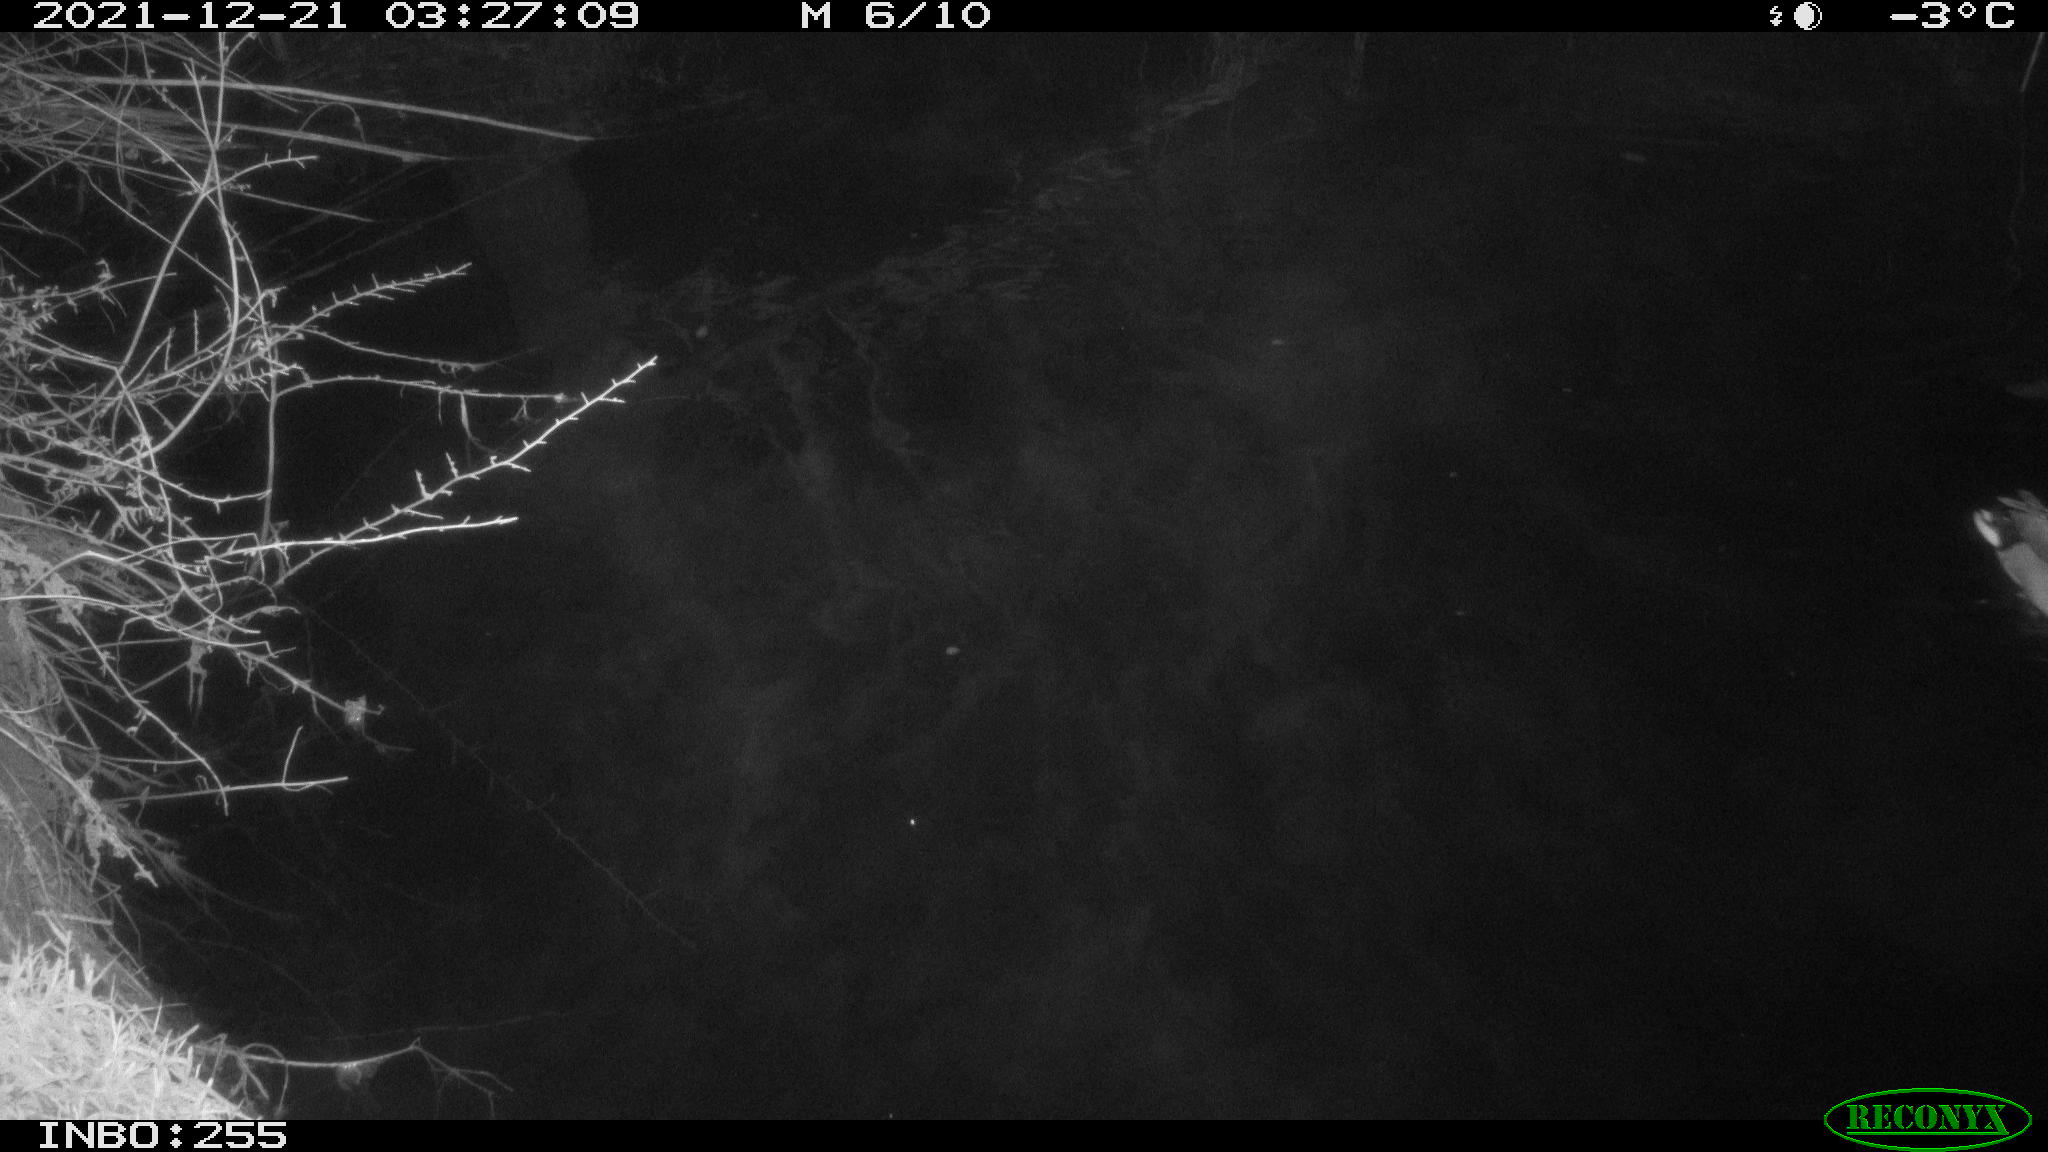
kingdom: Animalia
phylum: Chordata
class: Aves
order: Anseriformes
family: Anatidae
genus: Anas
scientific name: Anas
